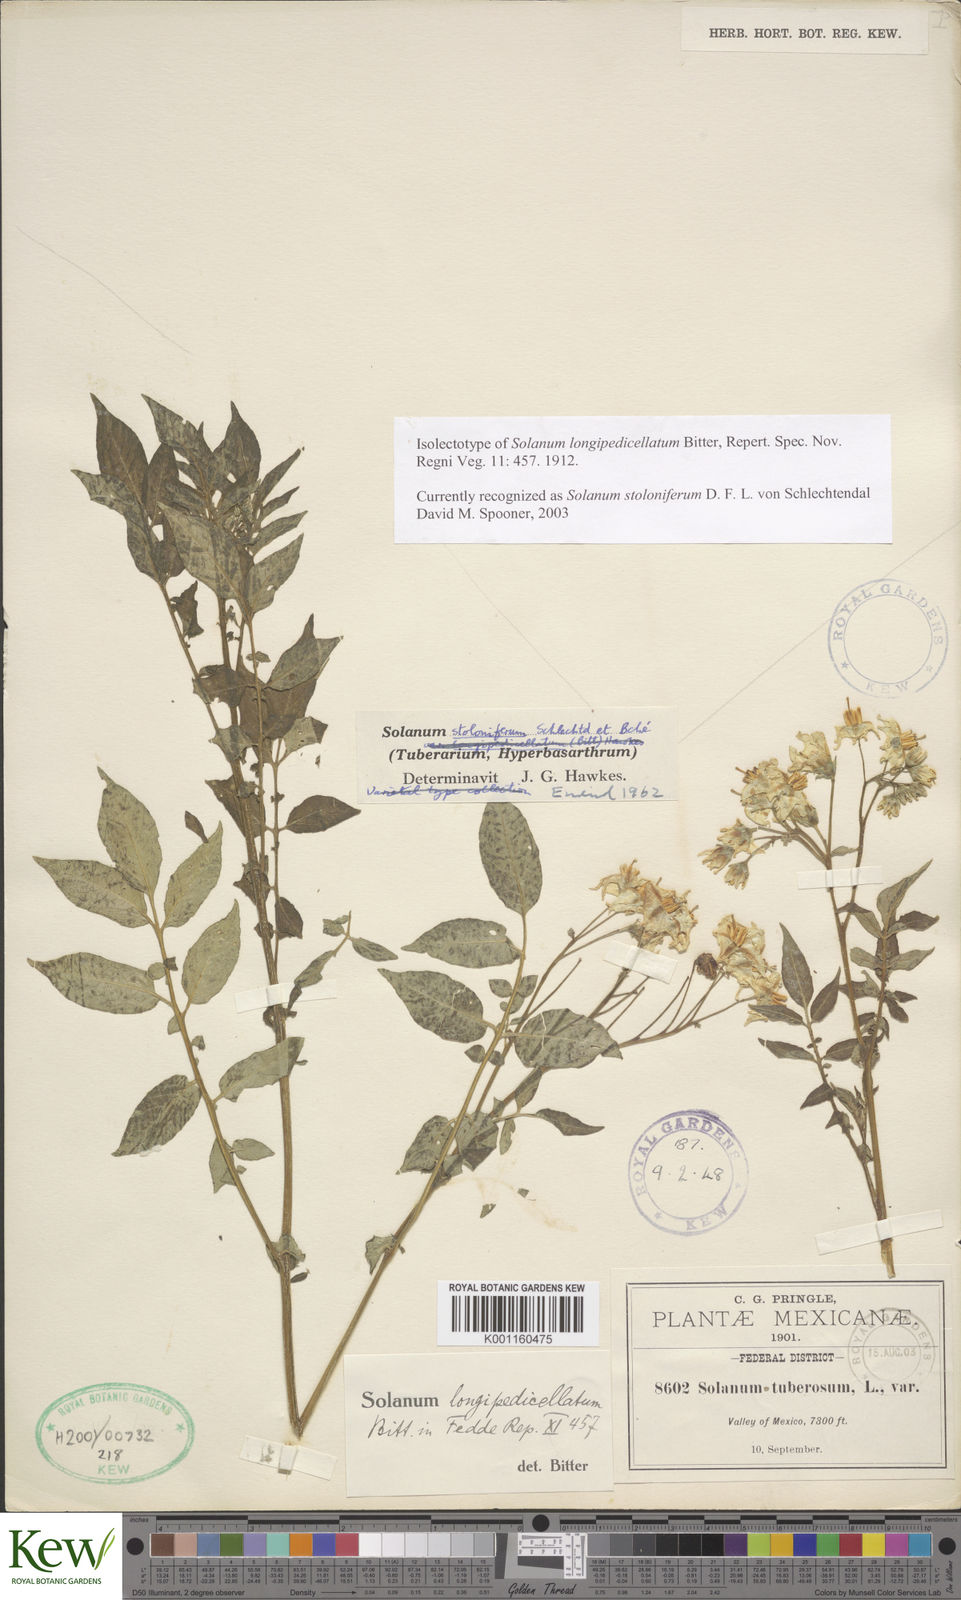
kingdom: Plantae
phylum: Tracheophyta
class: Magnoliopsida
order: Solanales
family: Solanaceae
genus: Solanum
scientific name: Solanum stoloniferum
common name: Fendler's nighshade
